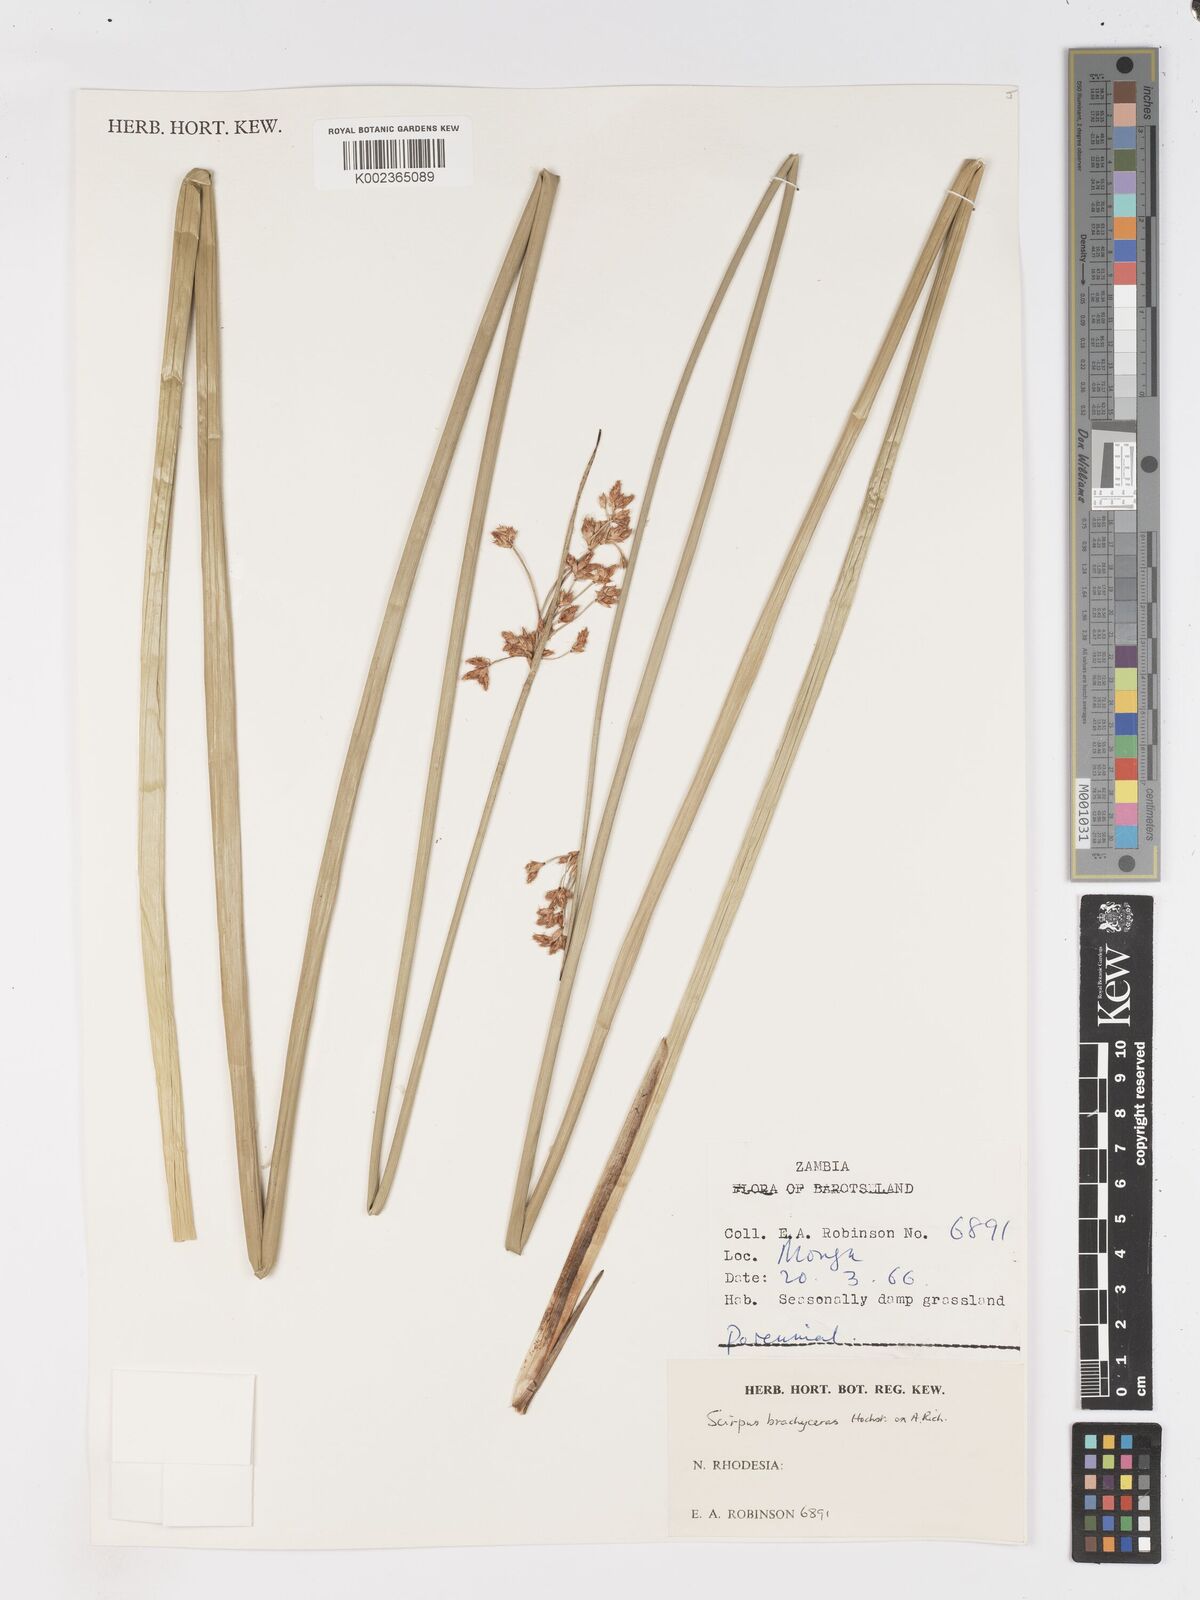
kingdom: Plantae
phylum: Tracheophyta
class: Liliopsida
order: Poales
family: Cyperaceae
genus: Schoenoplectiella
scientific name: Schoenoplectiella brachyceras
